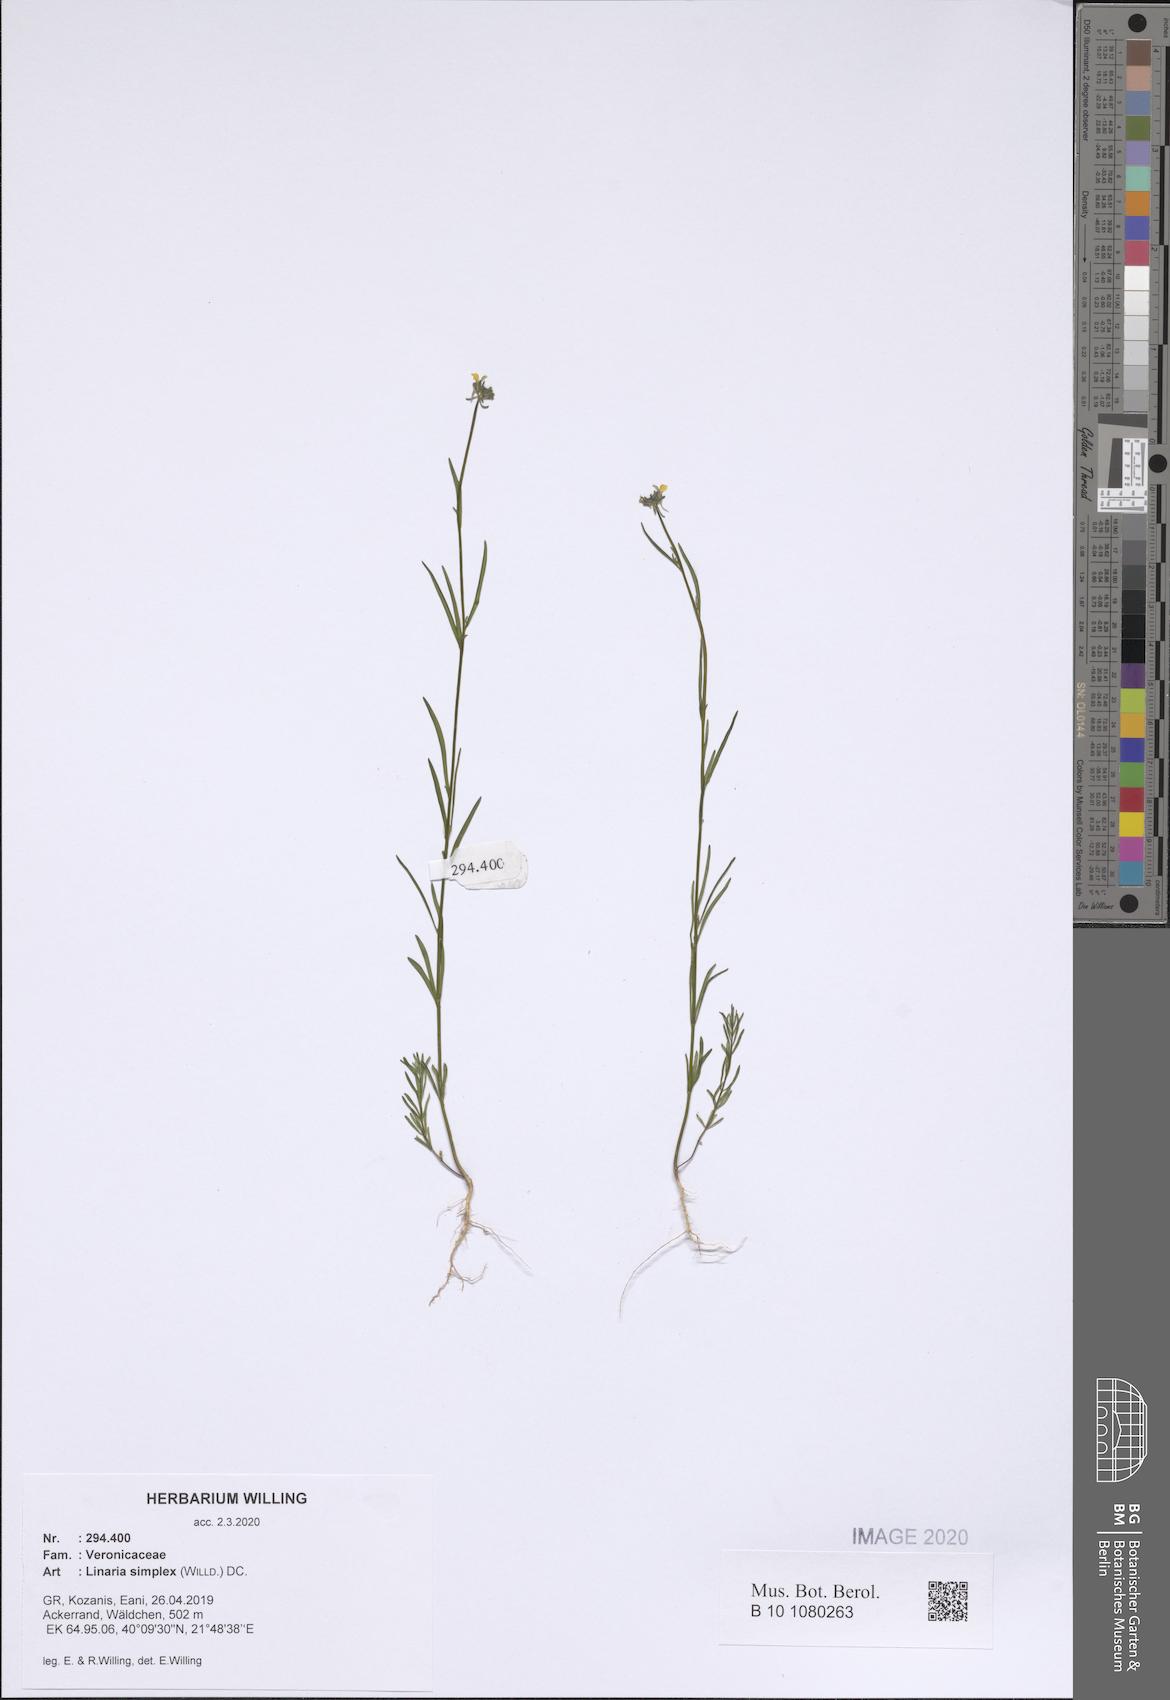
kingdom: Plantae
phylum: Tracheophyta
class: Magnoliopsida
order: Lamiales
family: Plantaginaceae
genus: Linaria
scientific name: Linaria simplex
